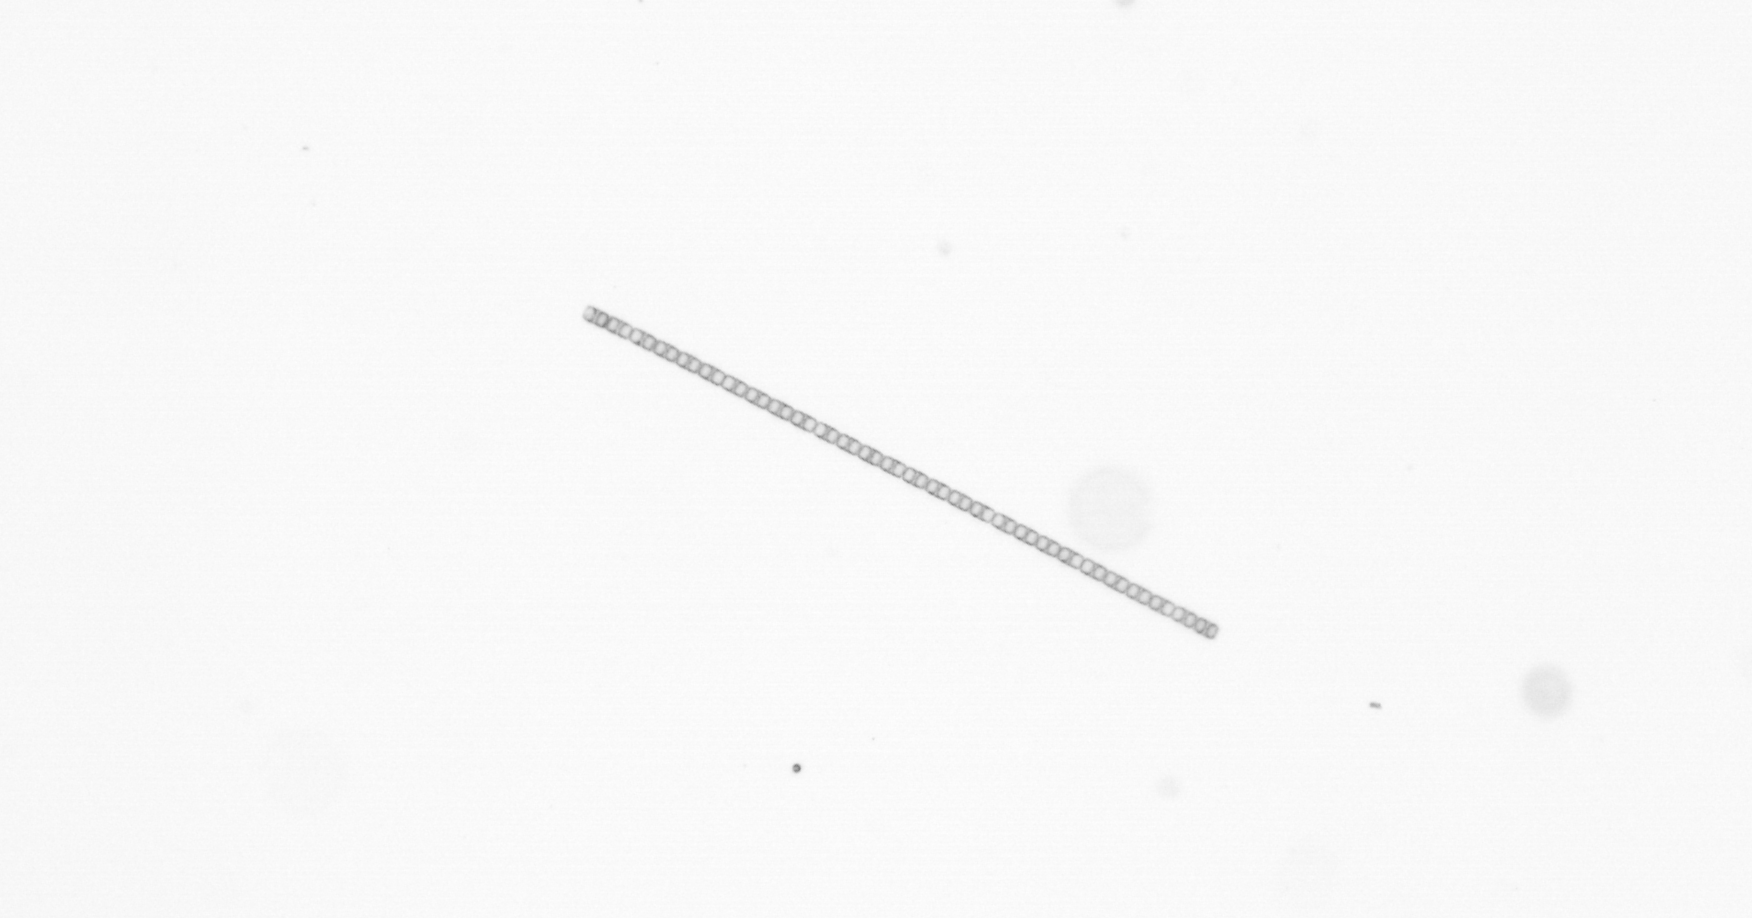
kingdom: Chromista
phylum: Ochrophyta
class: Bacillariophyceae
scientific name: Bacillariophyceae
